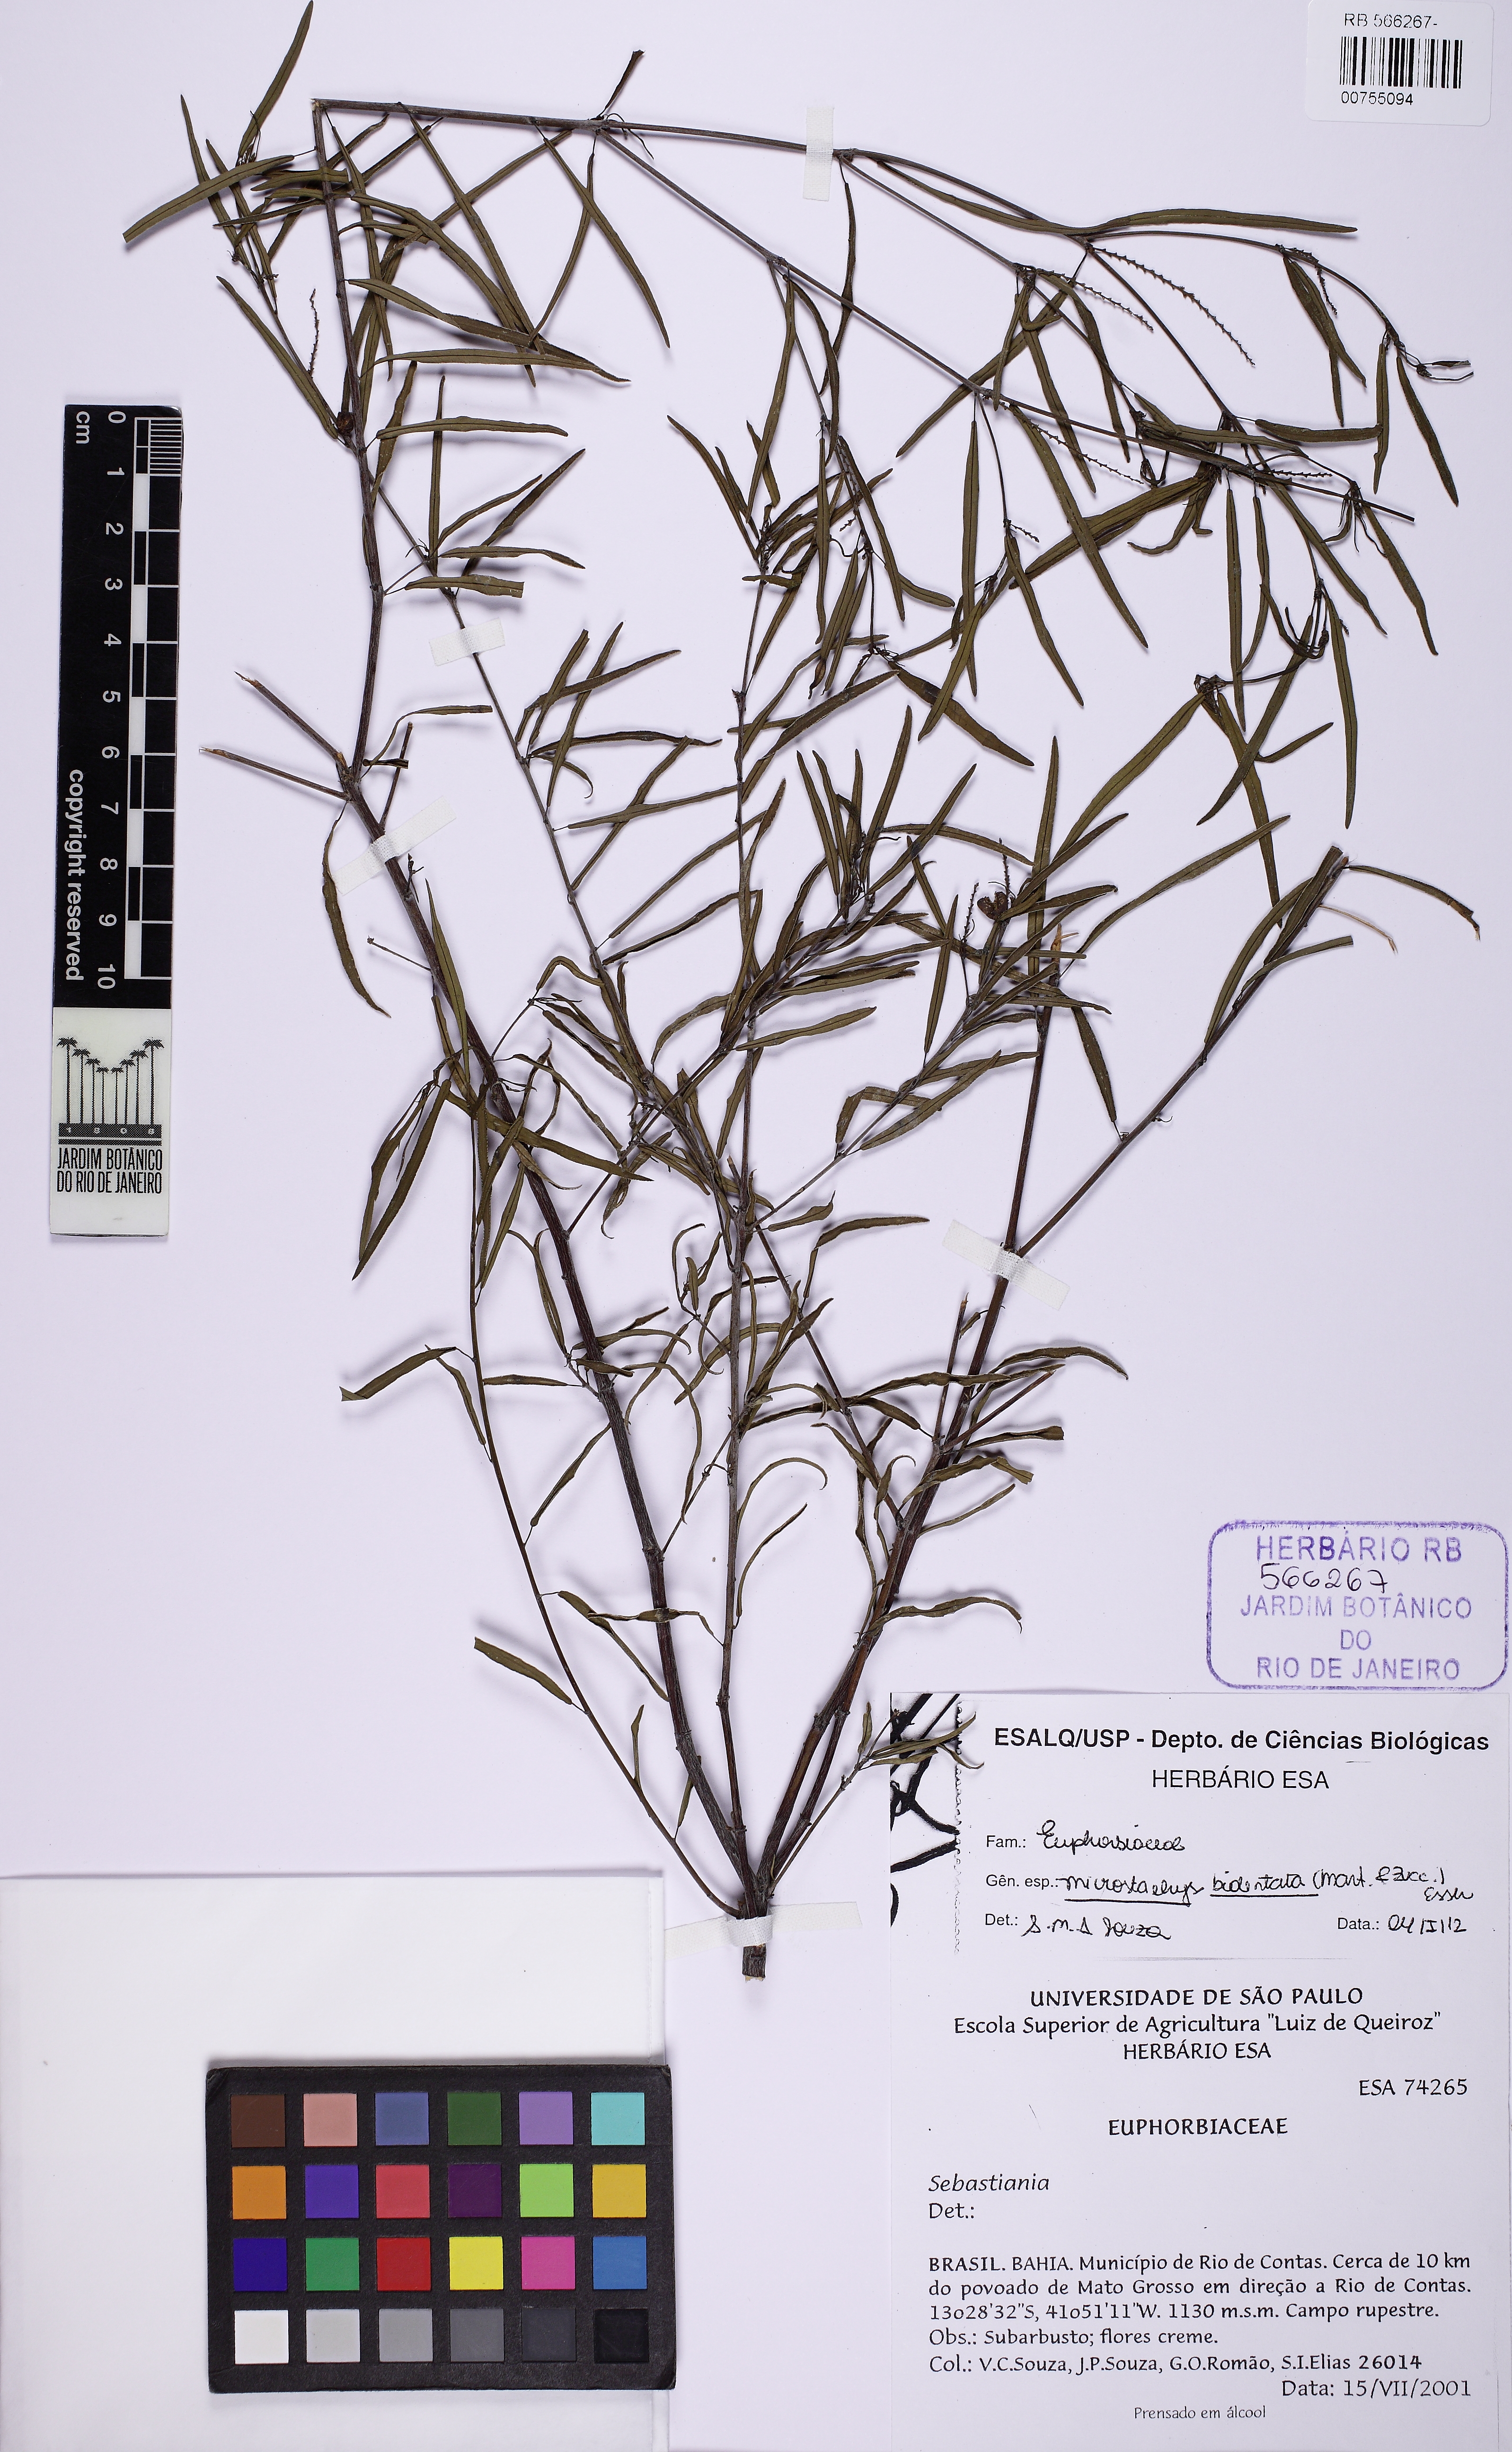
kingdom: Plantae
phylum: Tracheophyta
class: Magnoliopsida
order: Malpighiales
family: Euphorbiaceae
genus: Microstachys
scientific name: Microstachys bidentata
